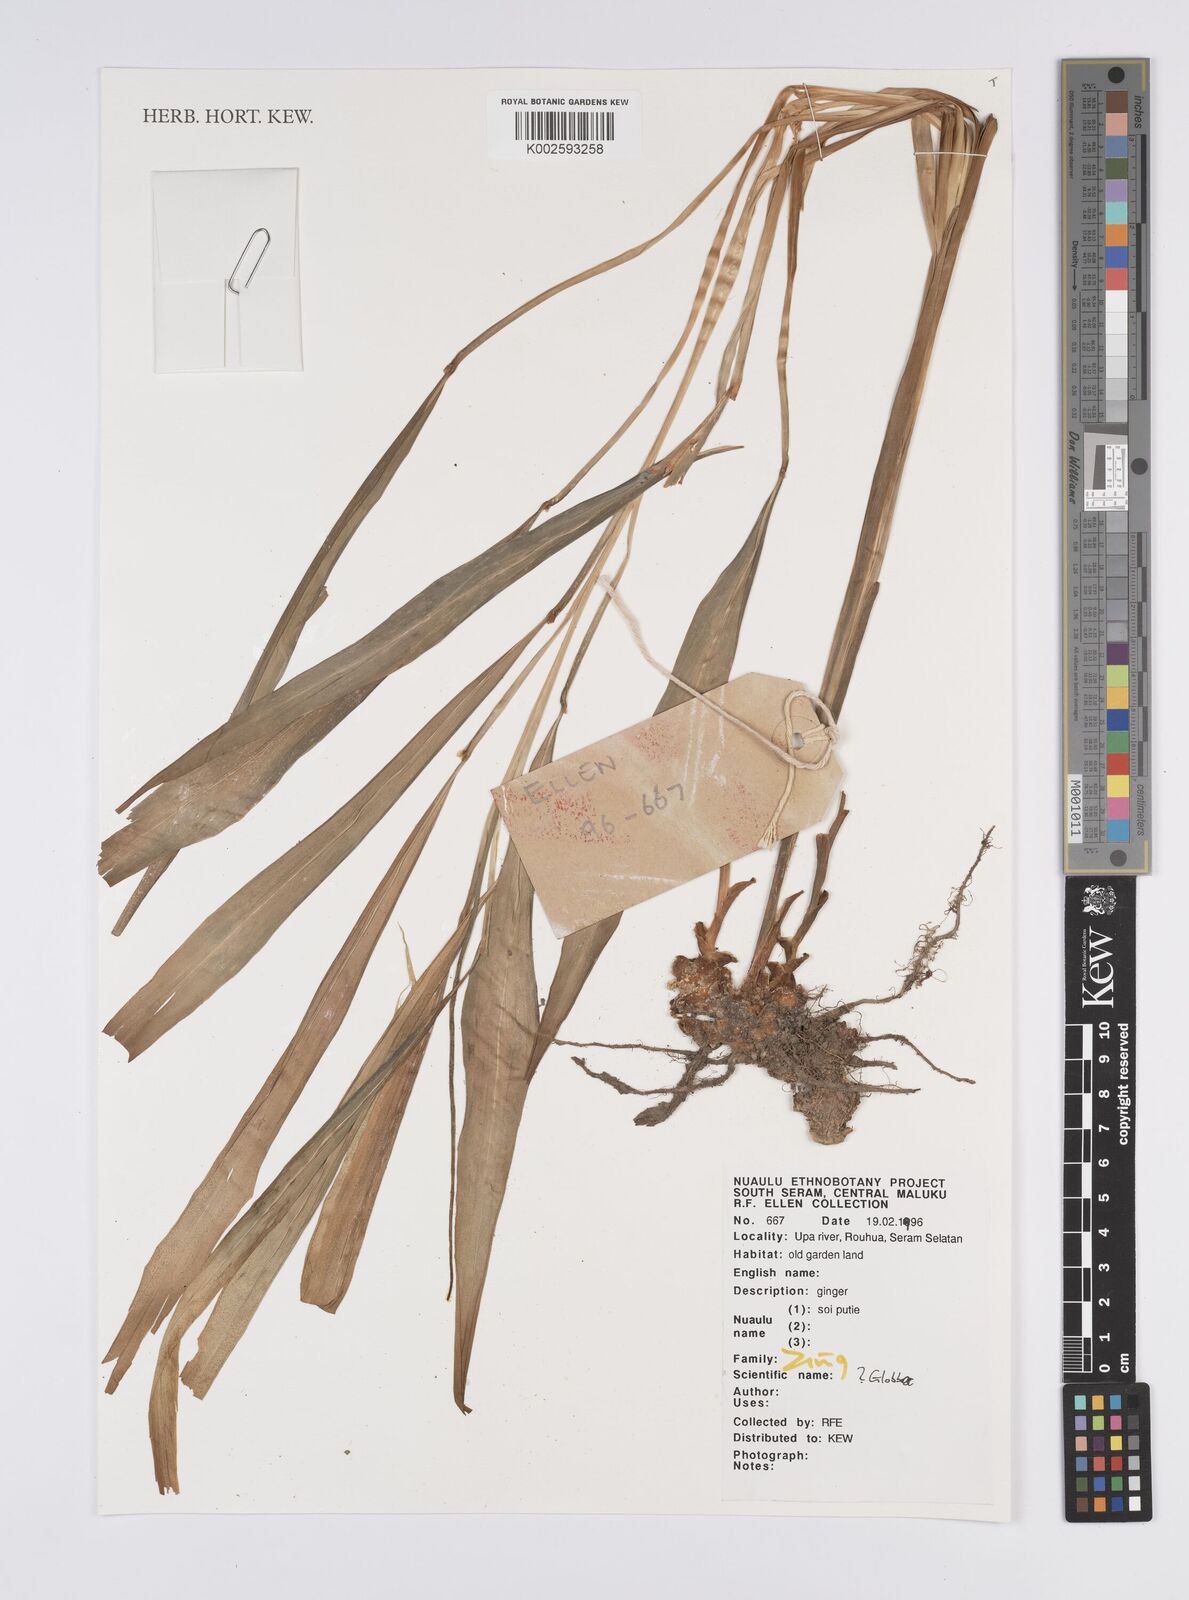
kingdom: Plantae
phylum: Tracheophyta
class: Liliopsida
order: Zingiberales
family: Zingiberaceae
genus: Globba
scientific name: Globba
